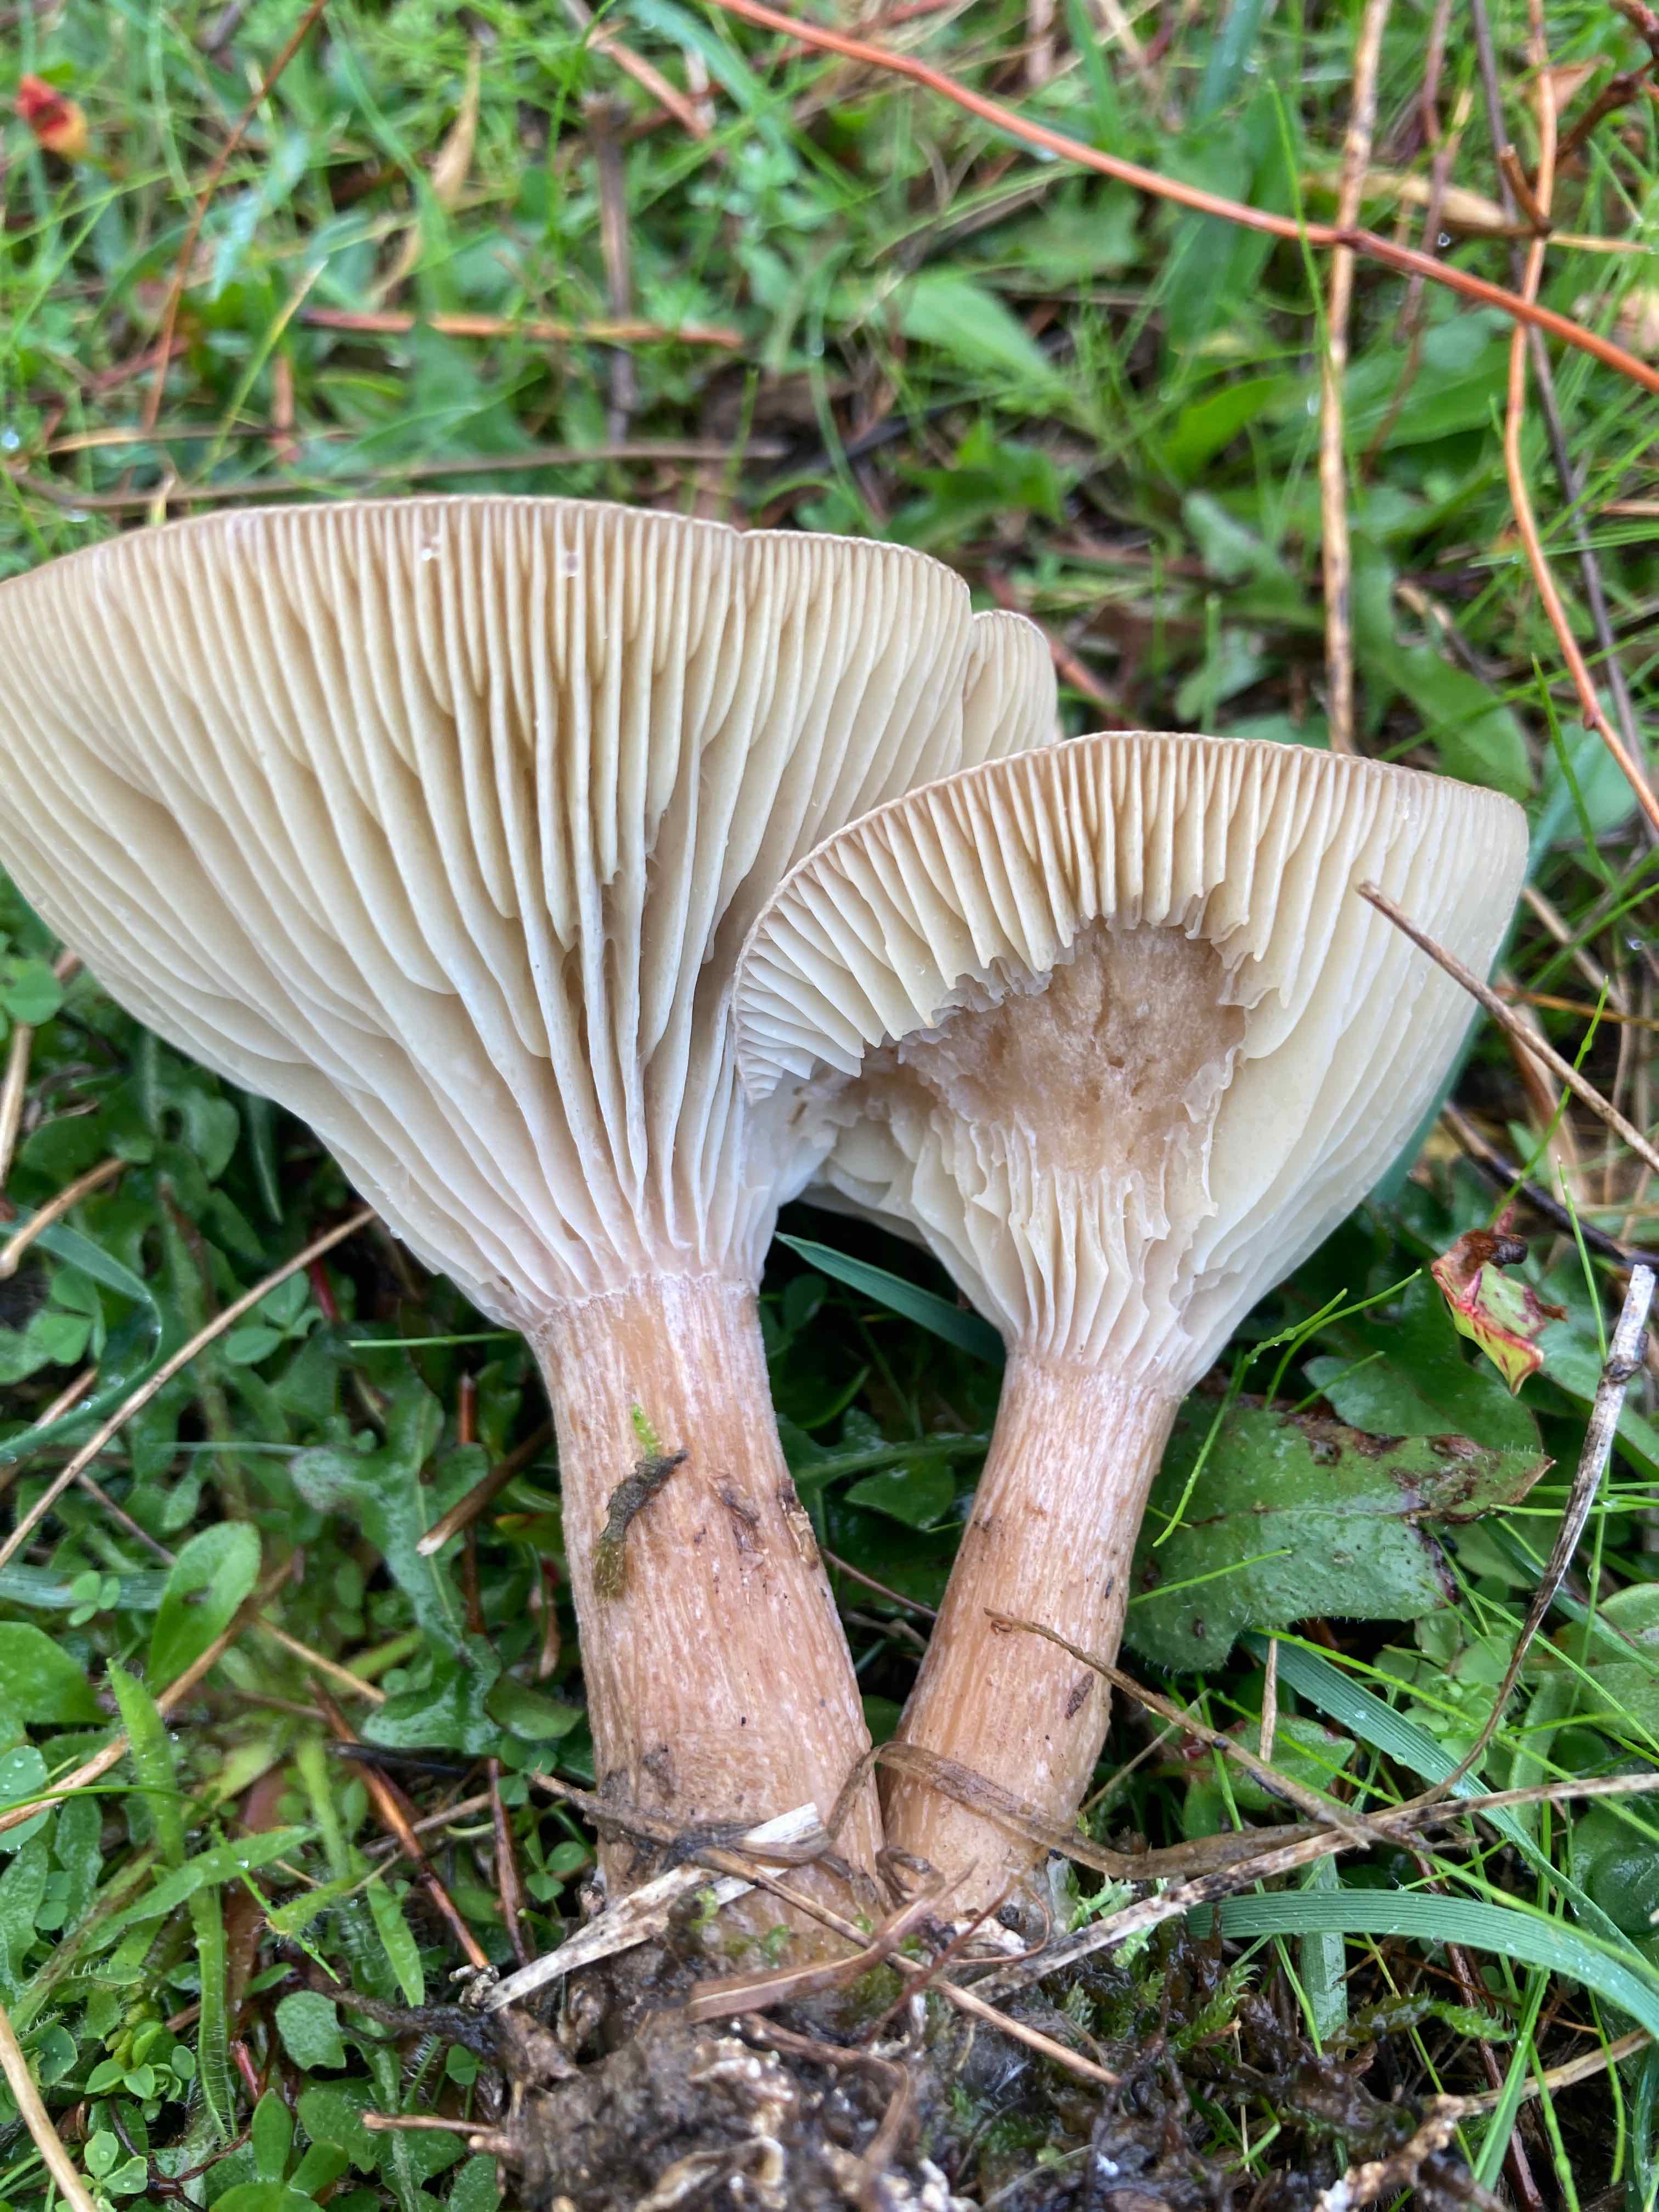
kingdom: Fungi
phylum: Basidiomycota
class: Agaricomycetes
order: Agaricales
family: Tricholomataceae
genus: Infundibulicybe
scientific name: Infundibulicybe
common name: tragthat
